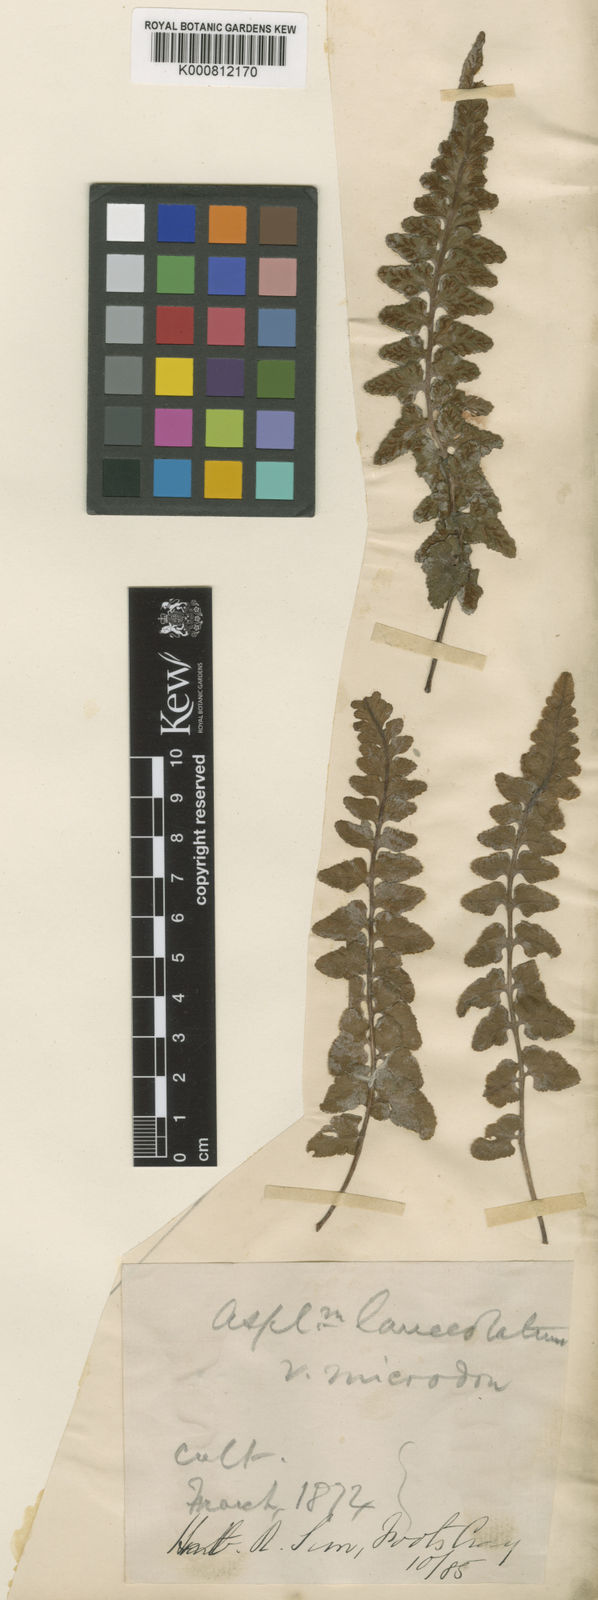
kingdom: Plantae
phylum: Tracheophyta
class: Polypodiopsida
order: Polypodiales
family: Aspleniaceae
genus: Asplenium
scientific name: Asplenium jacksonii
